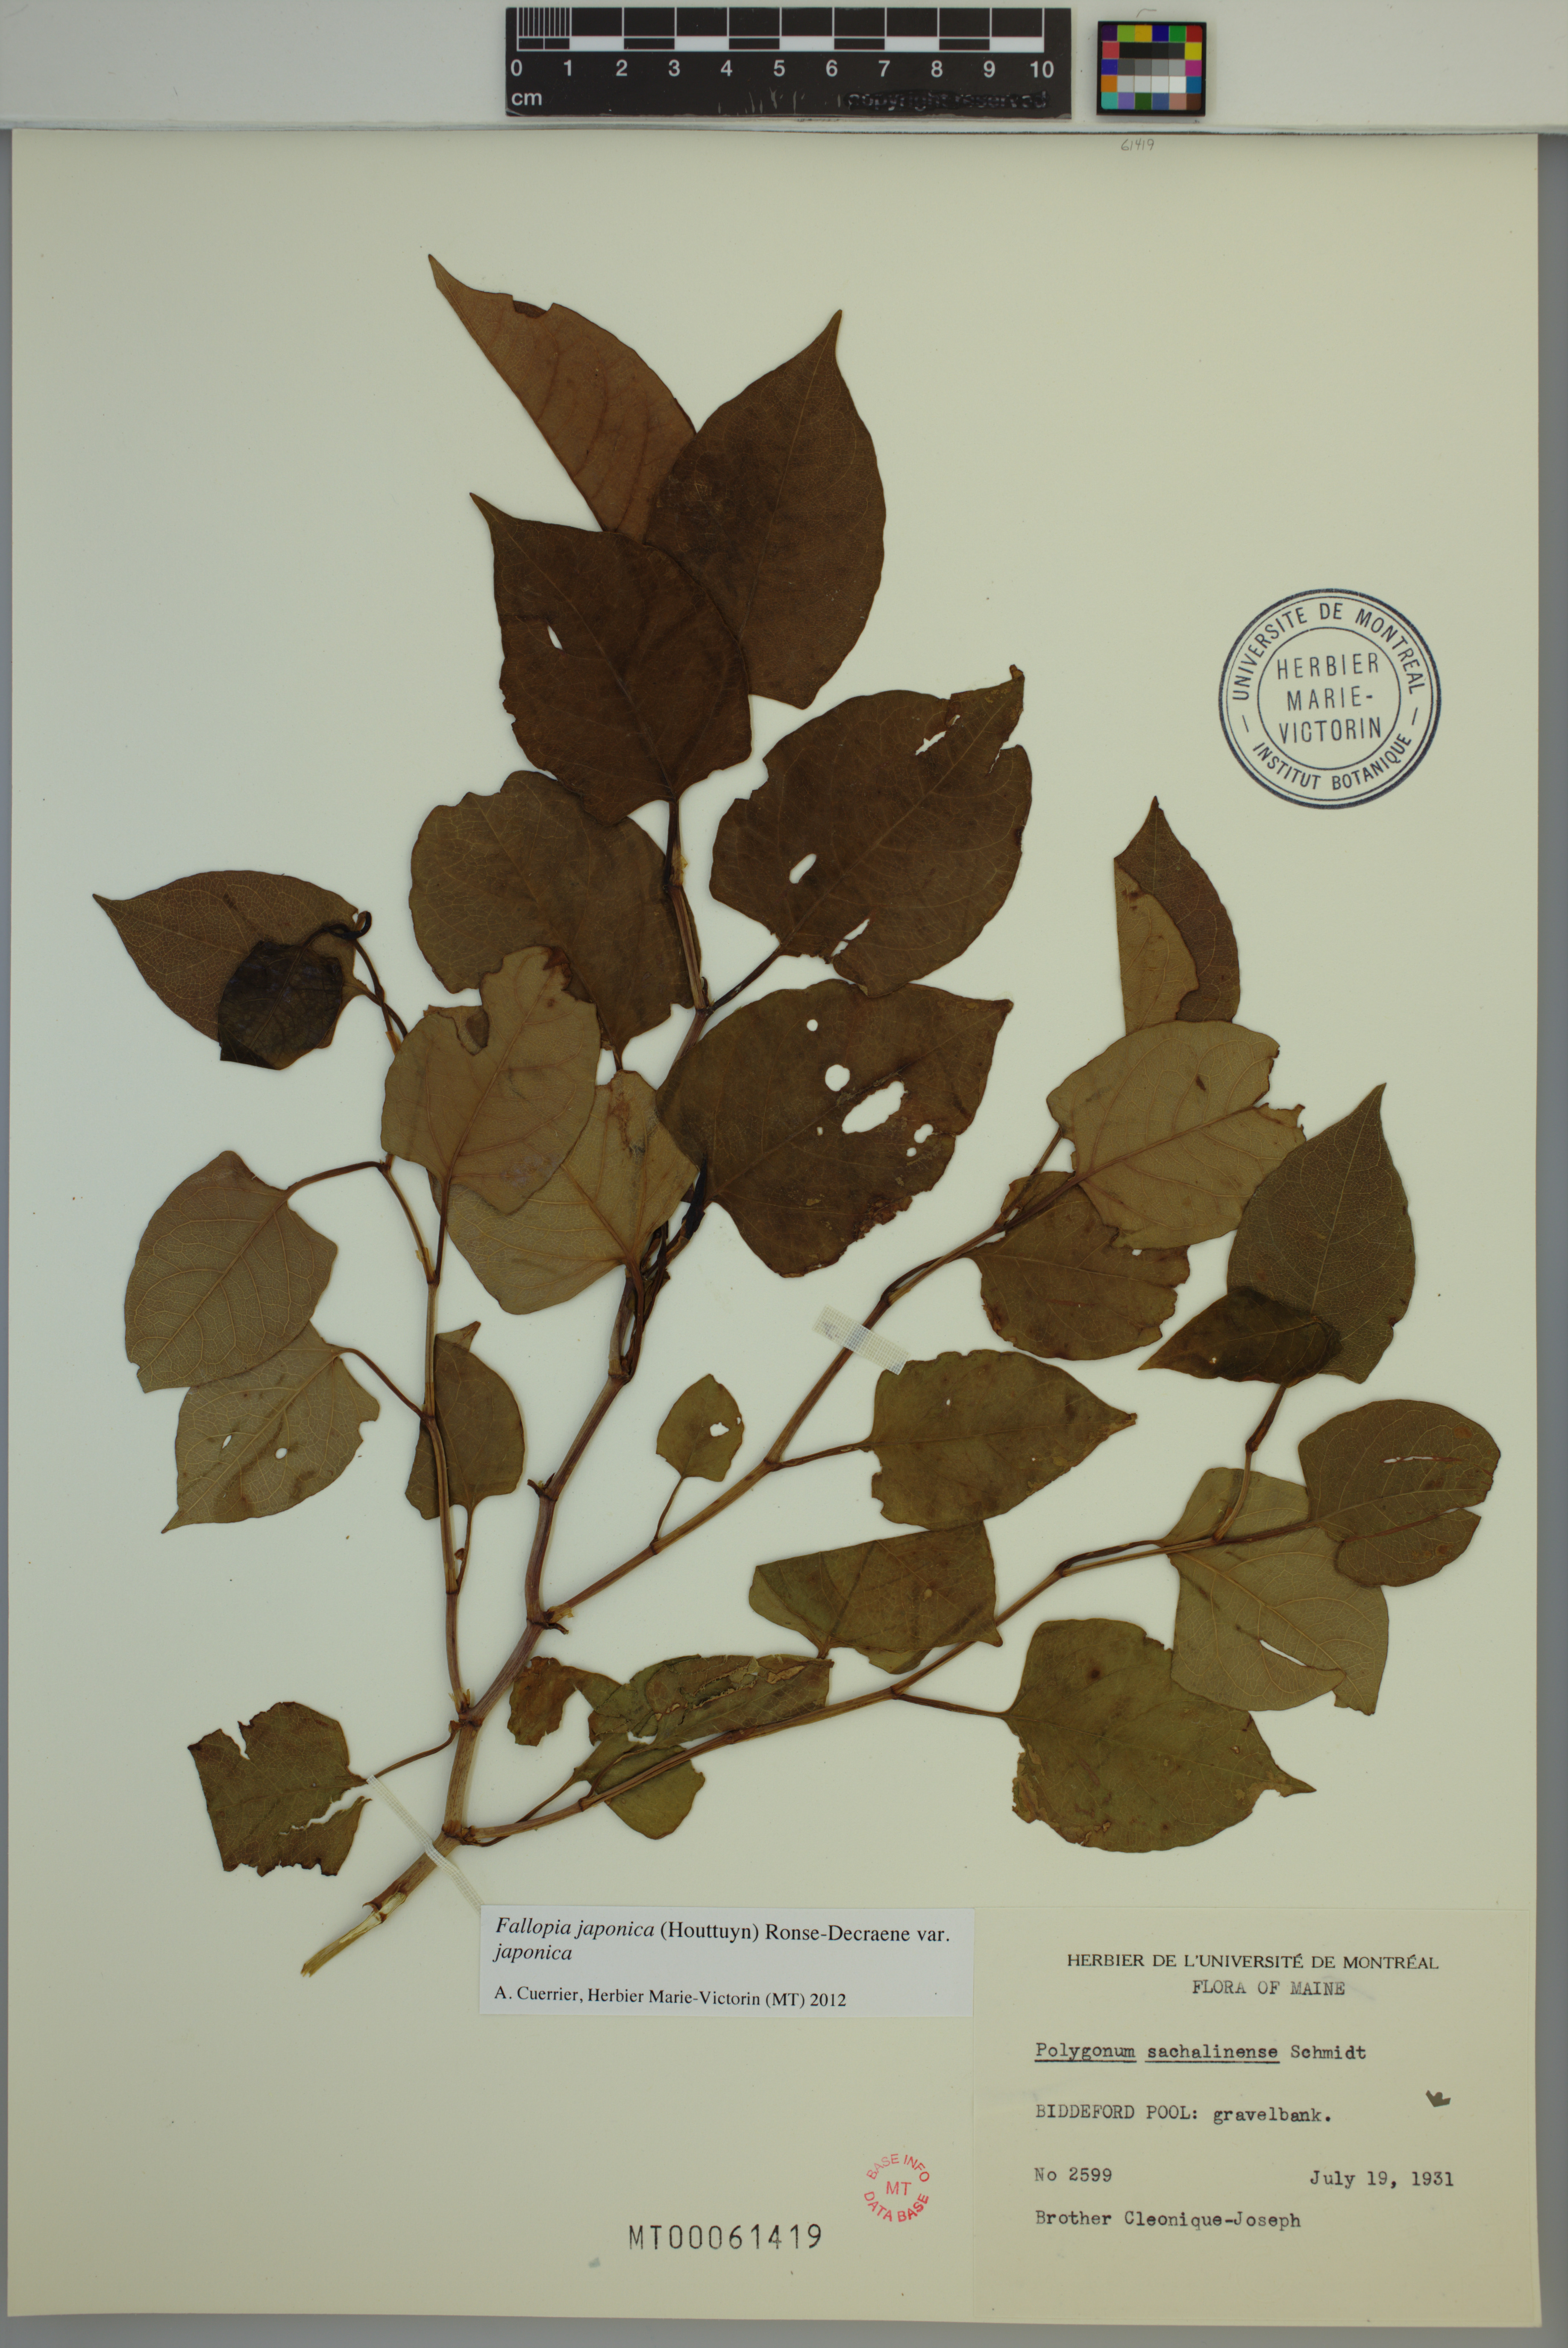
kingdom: Plantae
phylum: Tracheophyta
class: Magnoliopsida
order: Caryophyllales
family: Polygonaceae
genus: Reynoutria
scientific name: Reynoutria japonica
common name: Japanese knotweed
